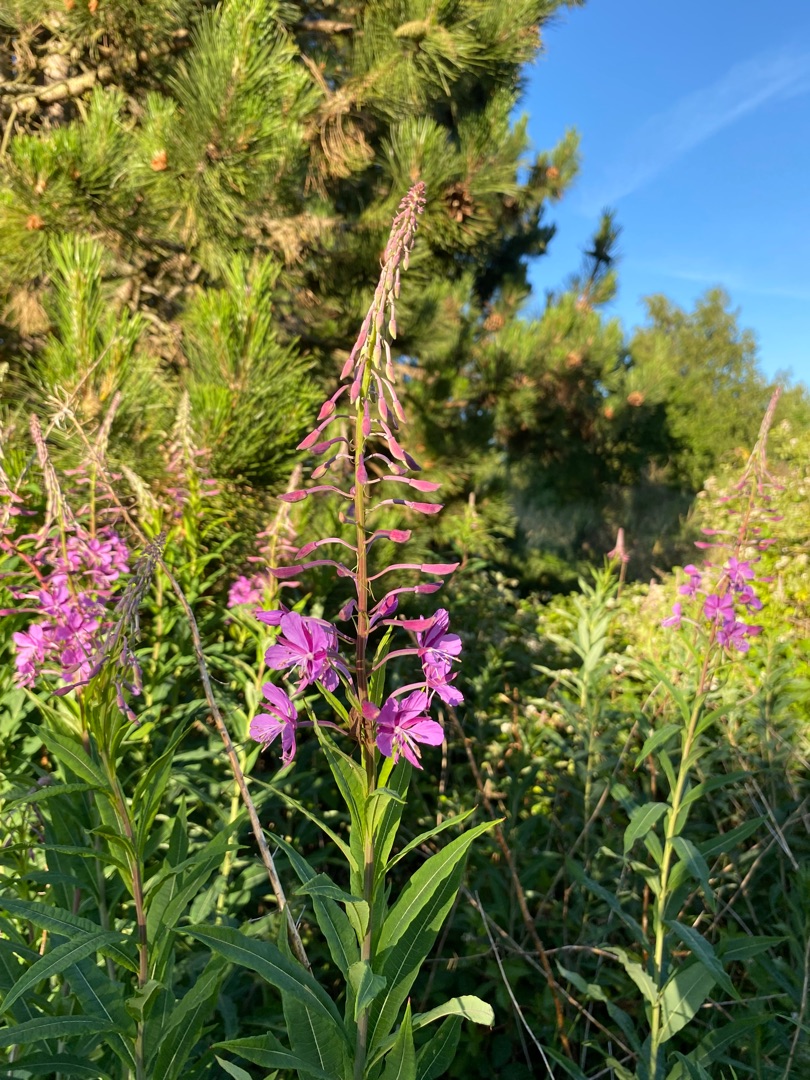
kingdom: Plantae
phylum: Tracheophyta
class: Magnoliopsida
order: Myrtales
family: Onagraceae
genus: Chamaenerion
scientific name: Chamaenerion angustifolium
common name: Gederams
